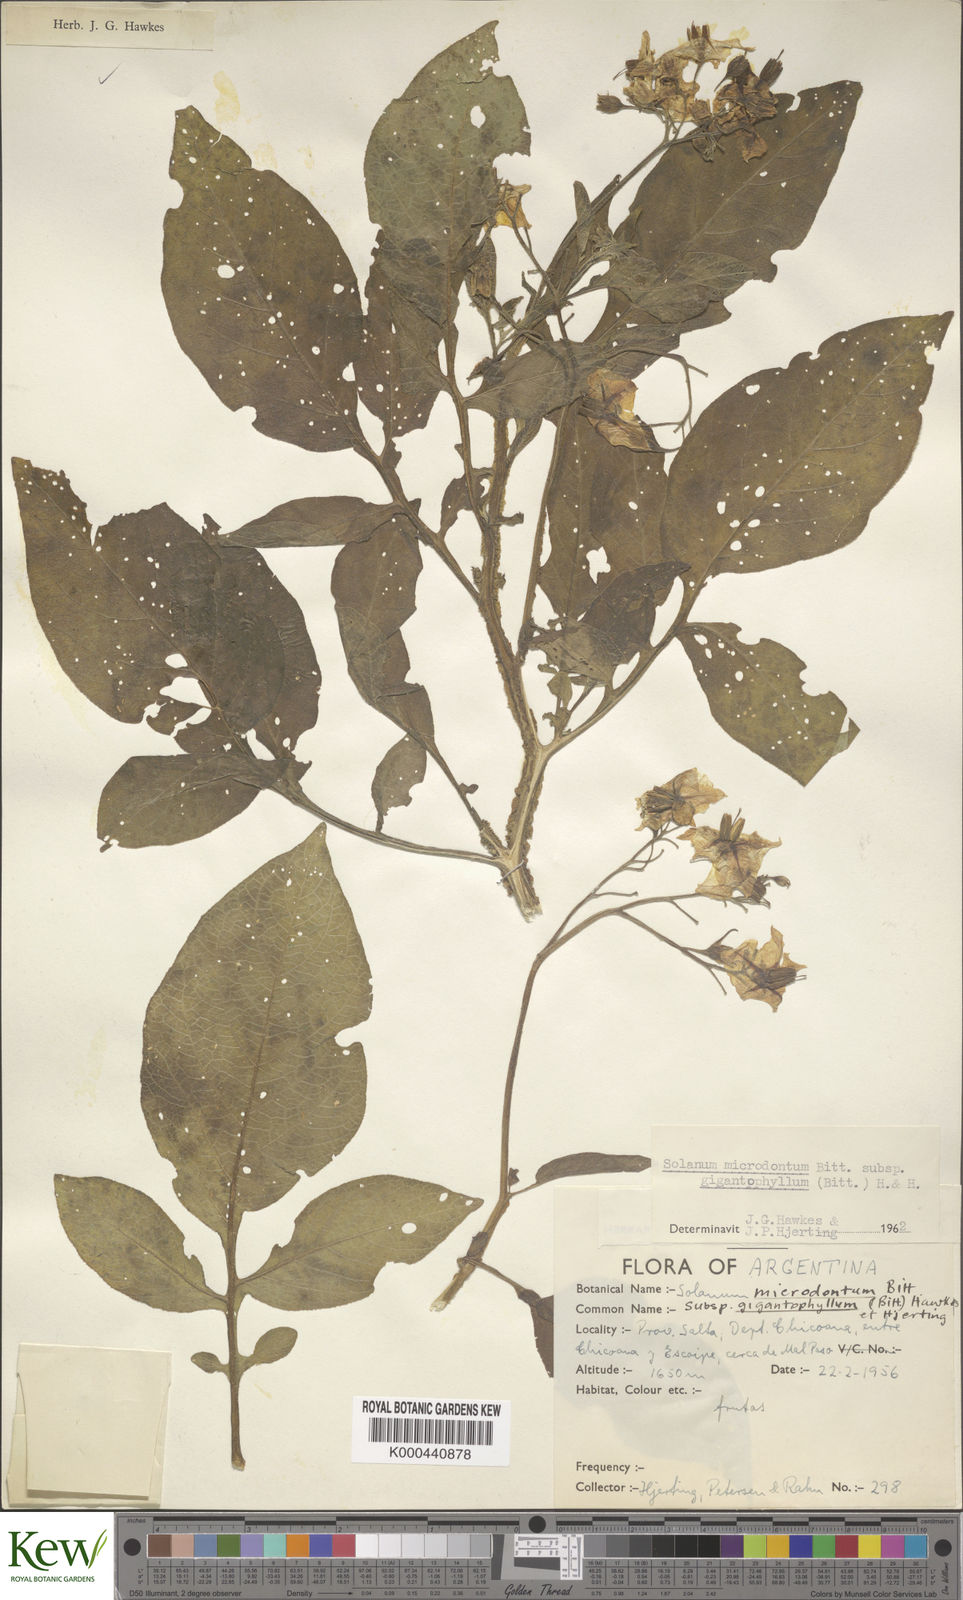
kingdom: Plantae
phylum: Tracheophyta
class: Magnoliopsida
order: Solanales
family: Solanaceae
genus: Solanum
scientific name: Solanum microdontum
